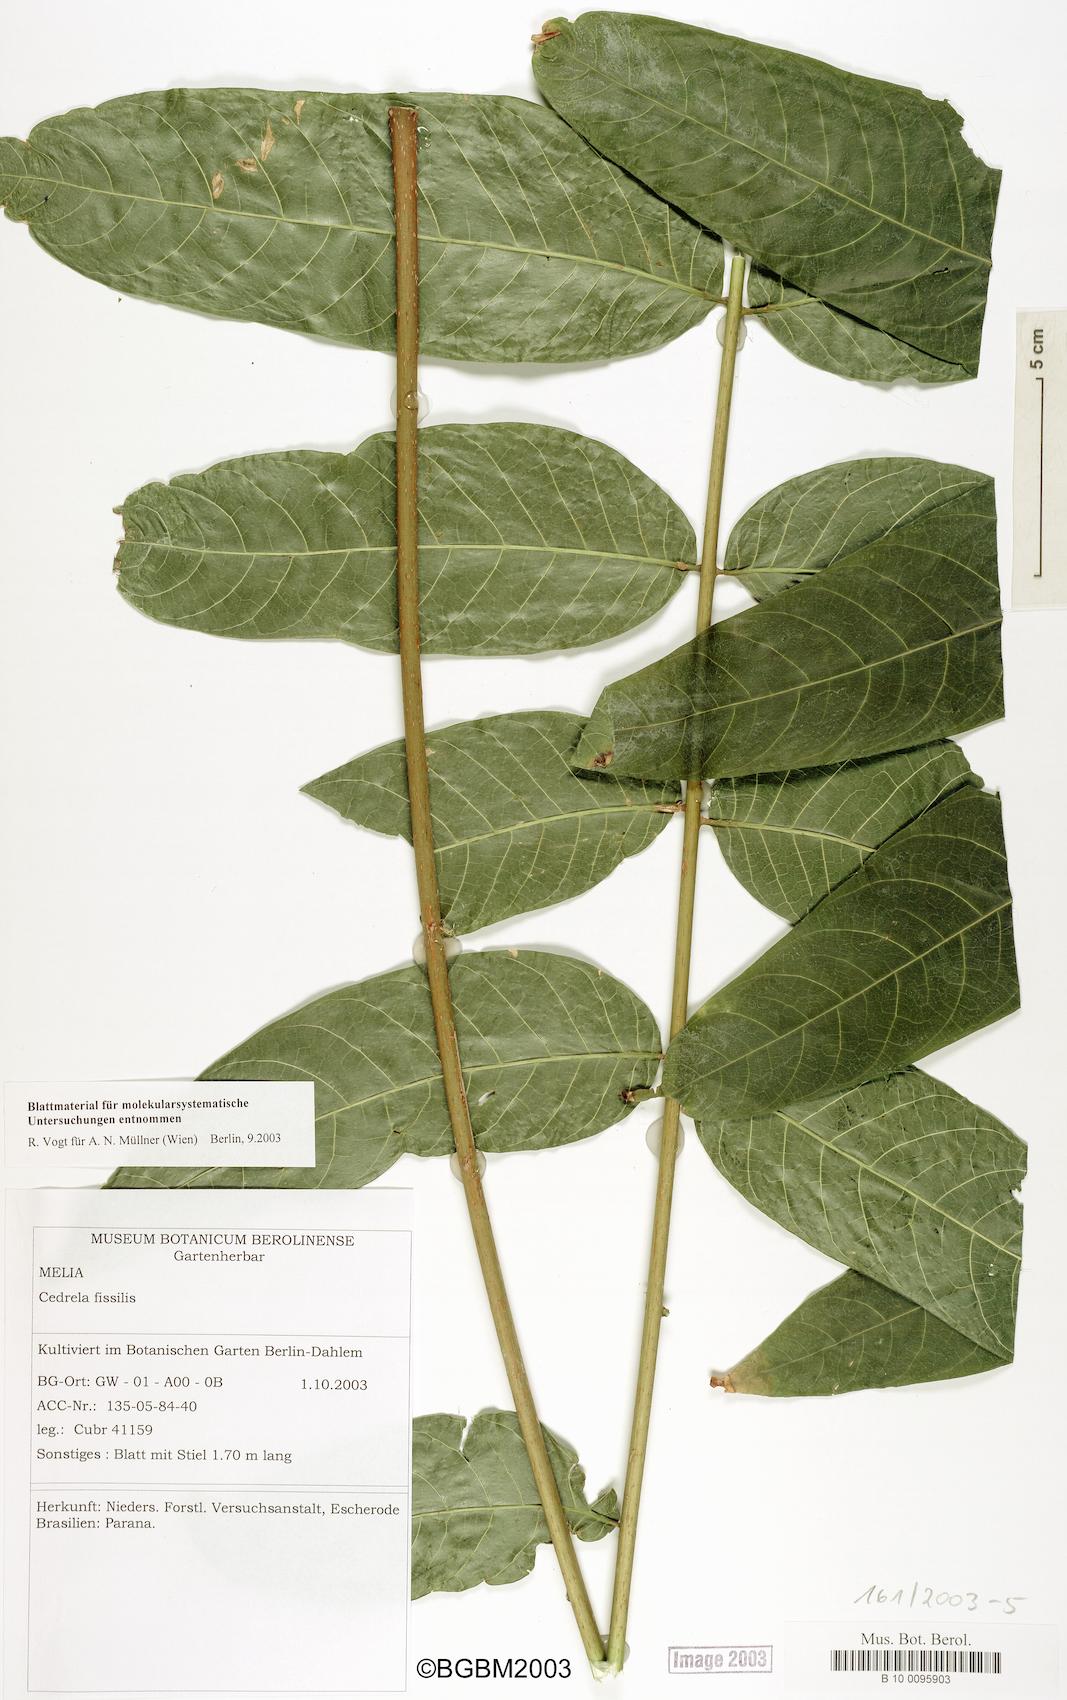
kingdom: Plantae
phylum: Tracheophyta
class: Magnoliopsida
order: Sapindales
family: Meliaceae
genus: Cedrela
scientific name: Cedrela fissilis
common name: Argentine cedar
